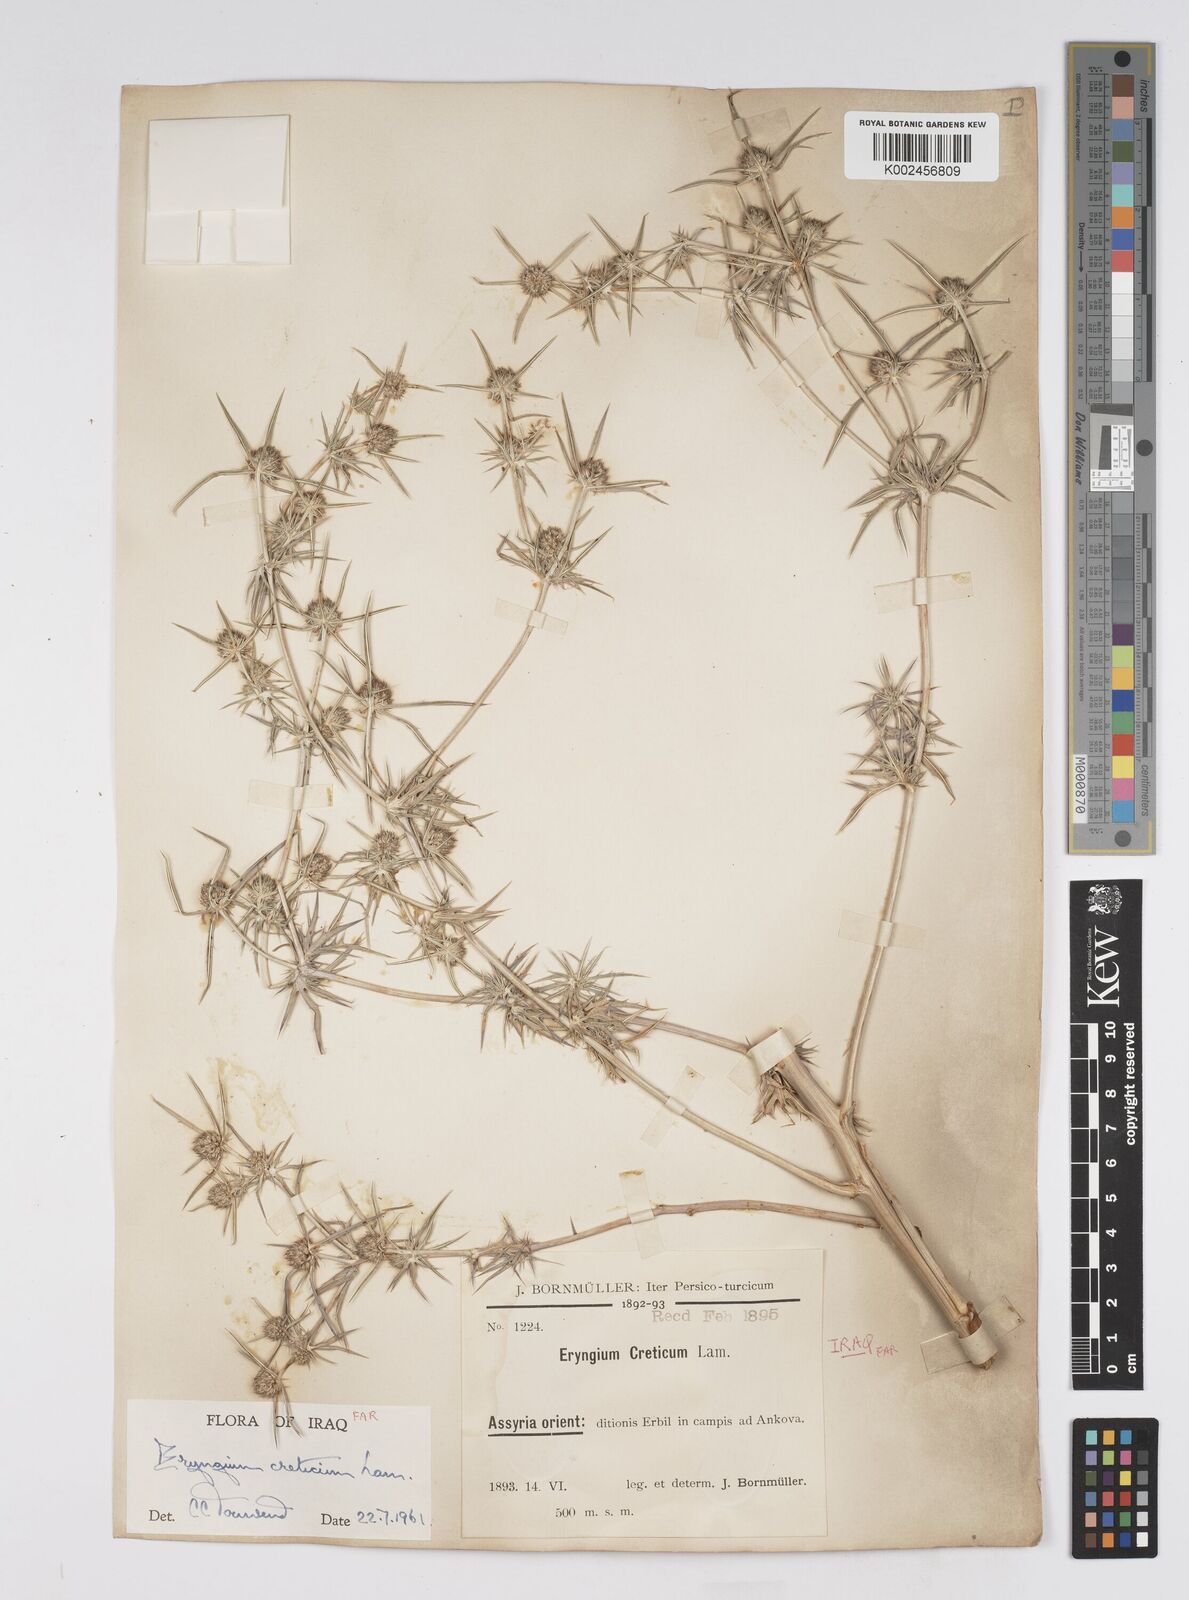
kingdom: Plantae
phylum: Tracheophyta
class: Magnoliopsida
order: Apiales
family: Apiaceae
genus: Eryngium
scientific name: Eryngium creticum
